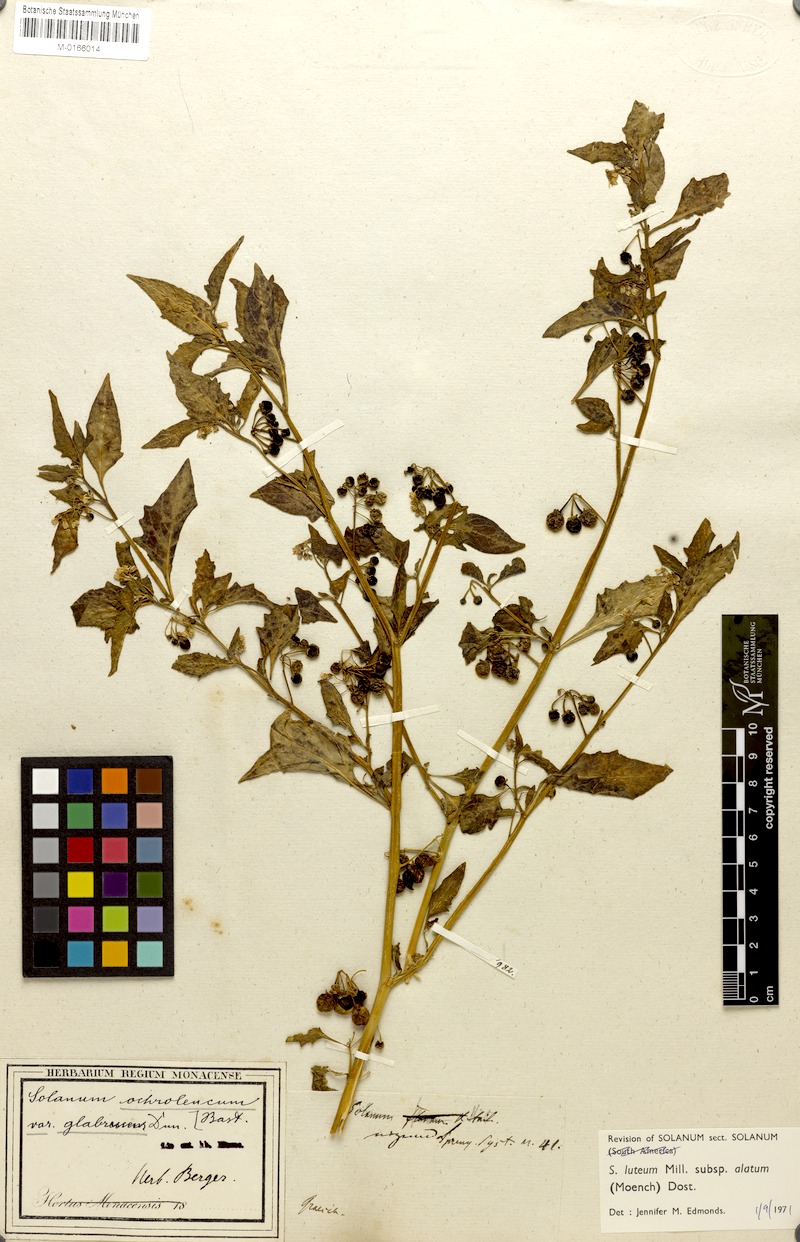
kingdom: Plantae
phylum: Tracheophyta
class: Magnoliopsida
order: Solanales
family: Solanaceae
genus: Solanum
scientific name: Solanum alatum
